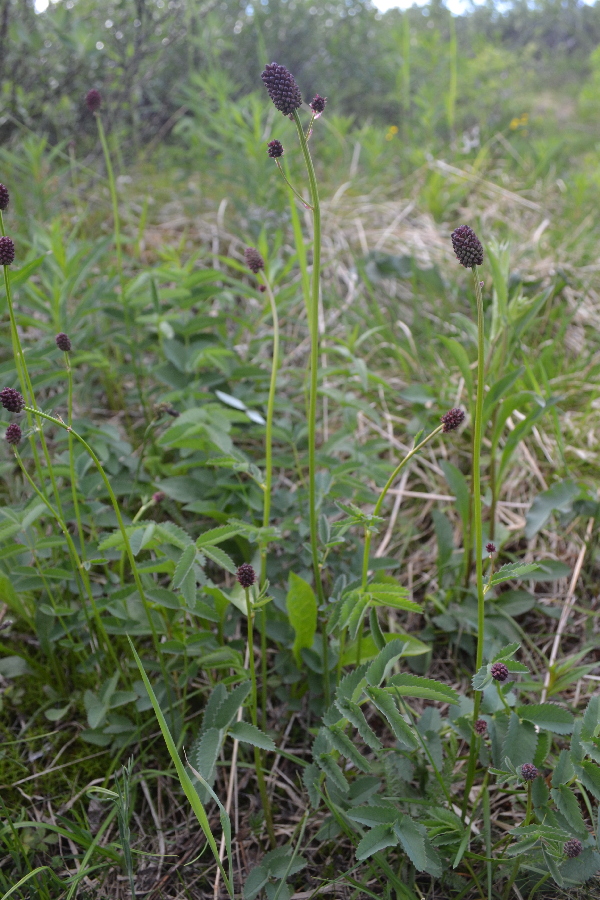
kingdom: Plantae
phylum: Tracheophyta
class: Magnoliopsida
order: Rosales
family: Rosaceae
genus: Sanguisorba
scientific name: Sanguisorba officinalis
